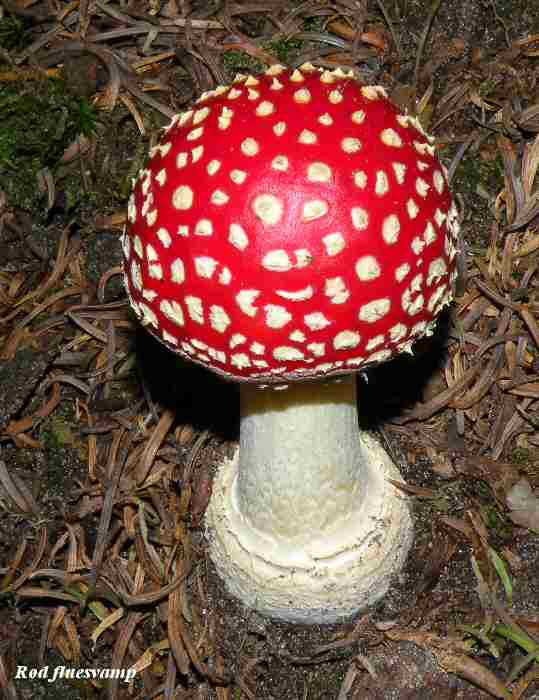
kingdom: Fungi
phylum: Basidiomycota
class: Agaricomycetes
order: Agaricales
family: Amanitaceae
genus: Amanita
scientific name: Amanita muscaria
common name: rød fluesvamp
